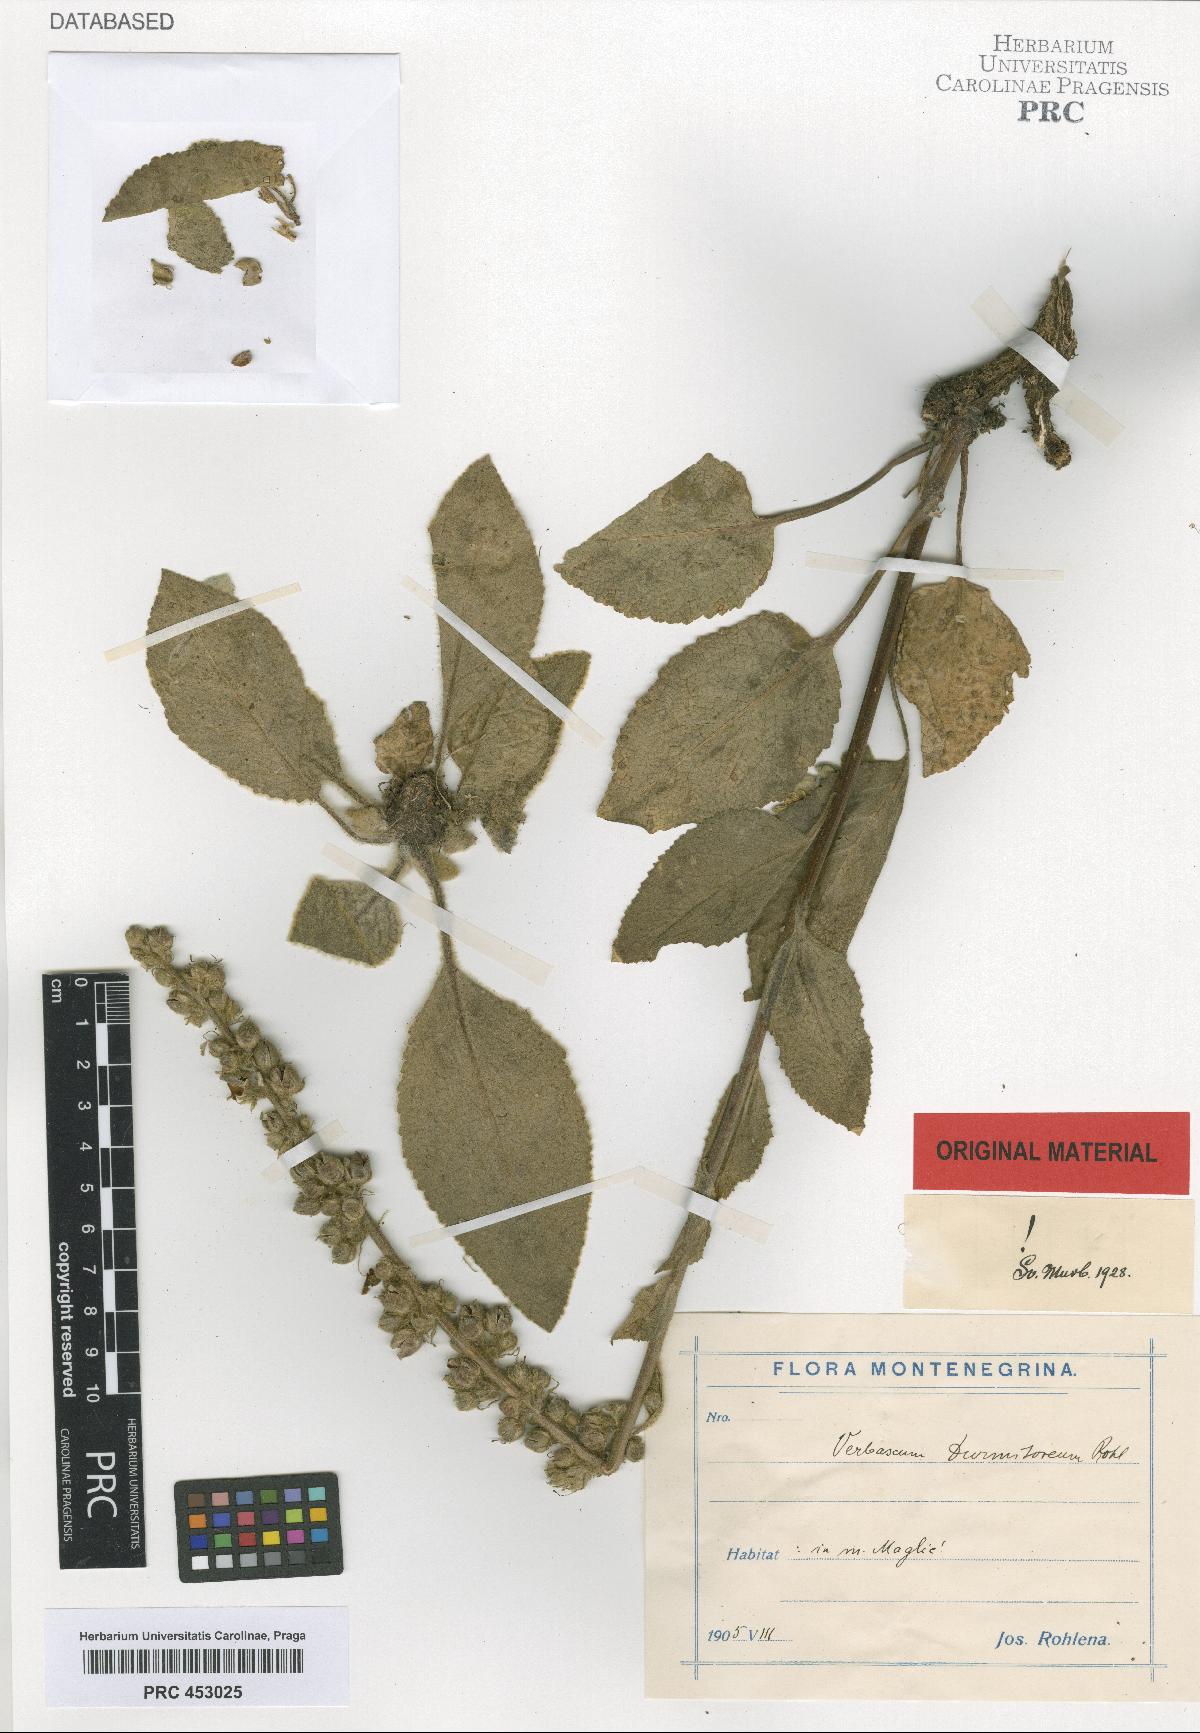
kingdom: Plantae
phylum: Tracheophyta
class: Magnoliopsida
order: Lamiales
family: Scrophulariaceae
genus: Verbascum
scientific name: Verbascum durmitoreum
